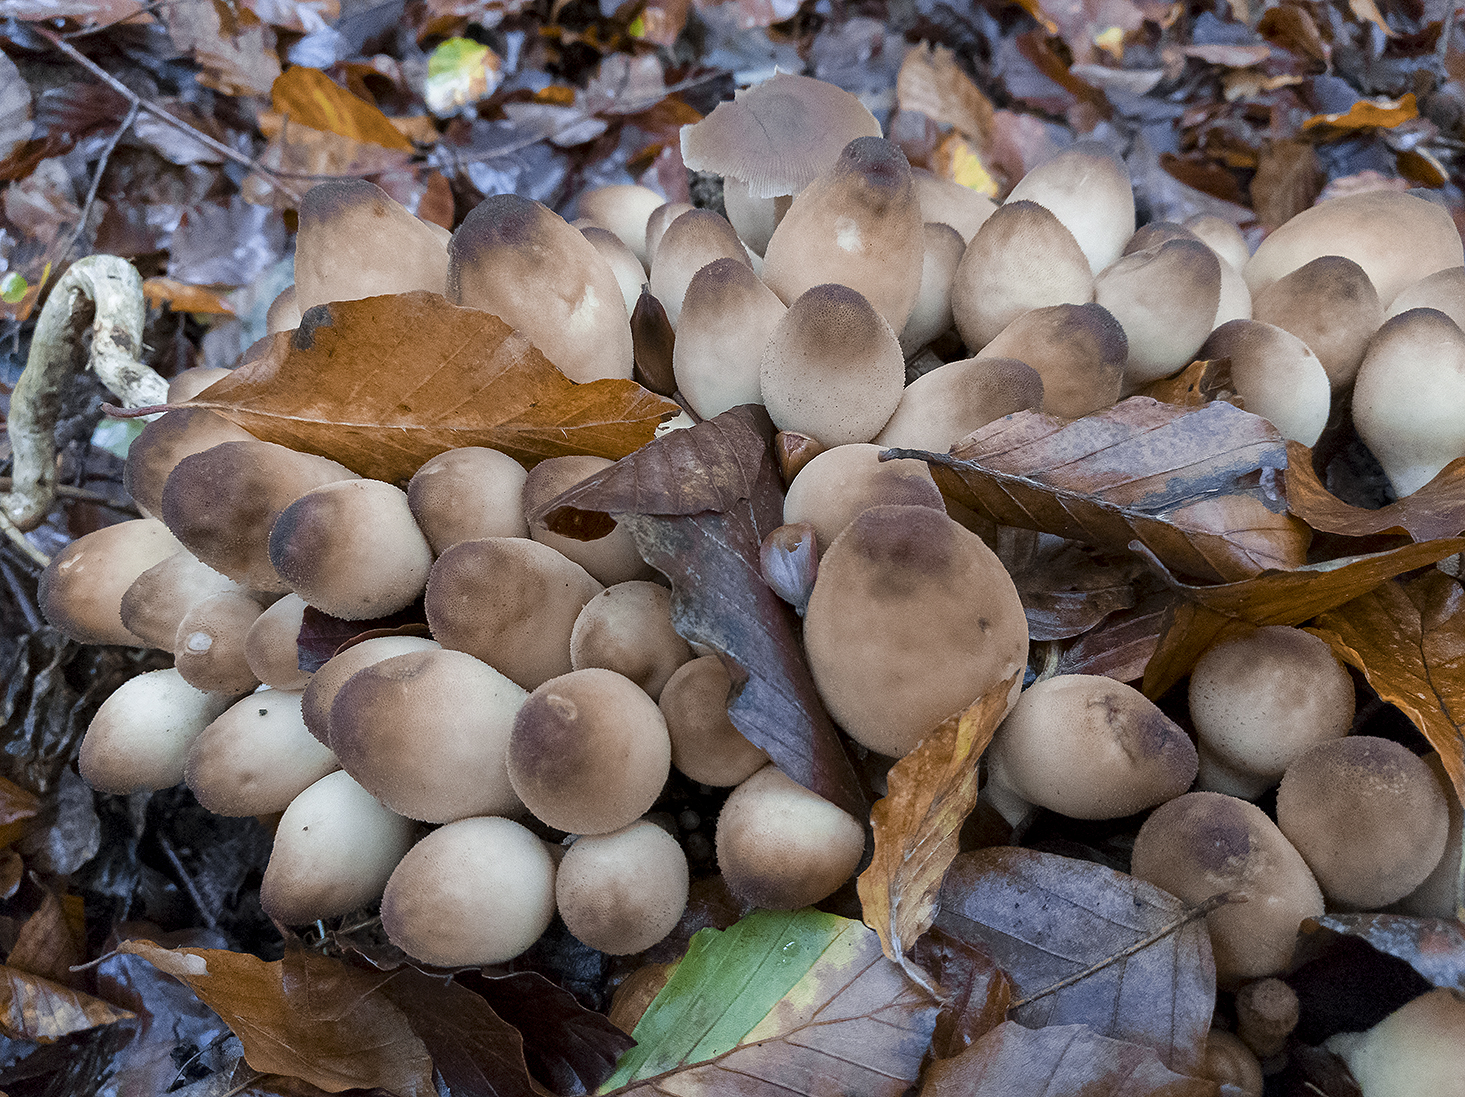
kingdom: Fungi
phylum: Basidiomycota
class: Agaricomycetes
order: Agaricales
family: Lycoperdaceae
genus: Apioperdon
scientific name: Apioperdon pyriforme
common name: pære-støvbold
